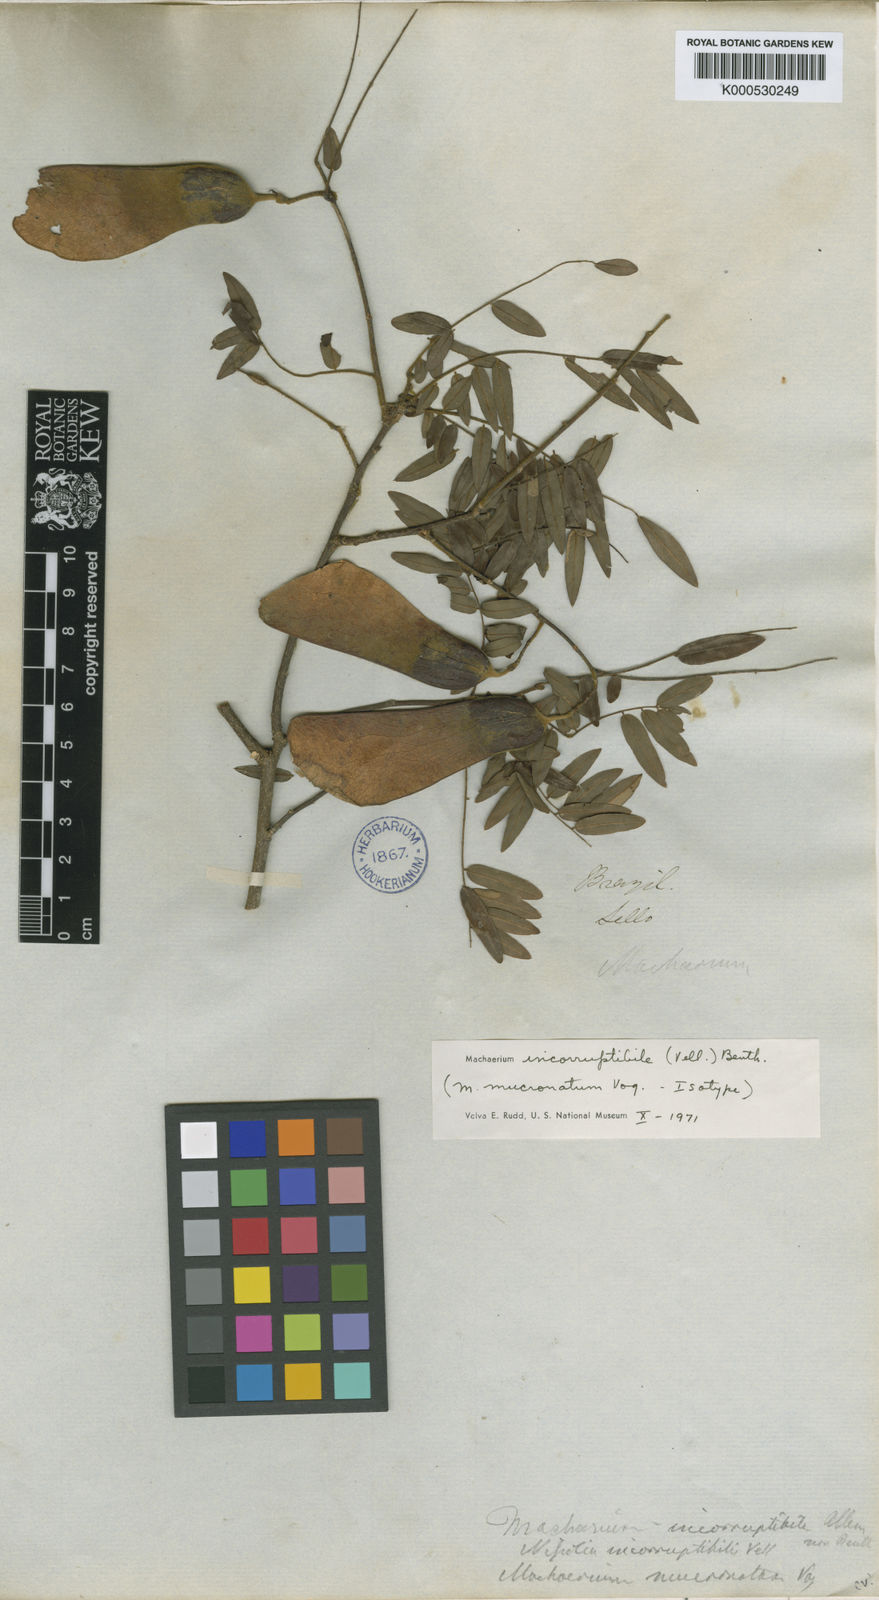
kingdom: Plantae
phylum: Tracheophyta
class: Magnoliopsida
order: Fabales
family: Fabaceae
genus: Machaerium
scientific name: Machaerium legale
